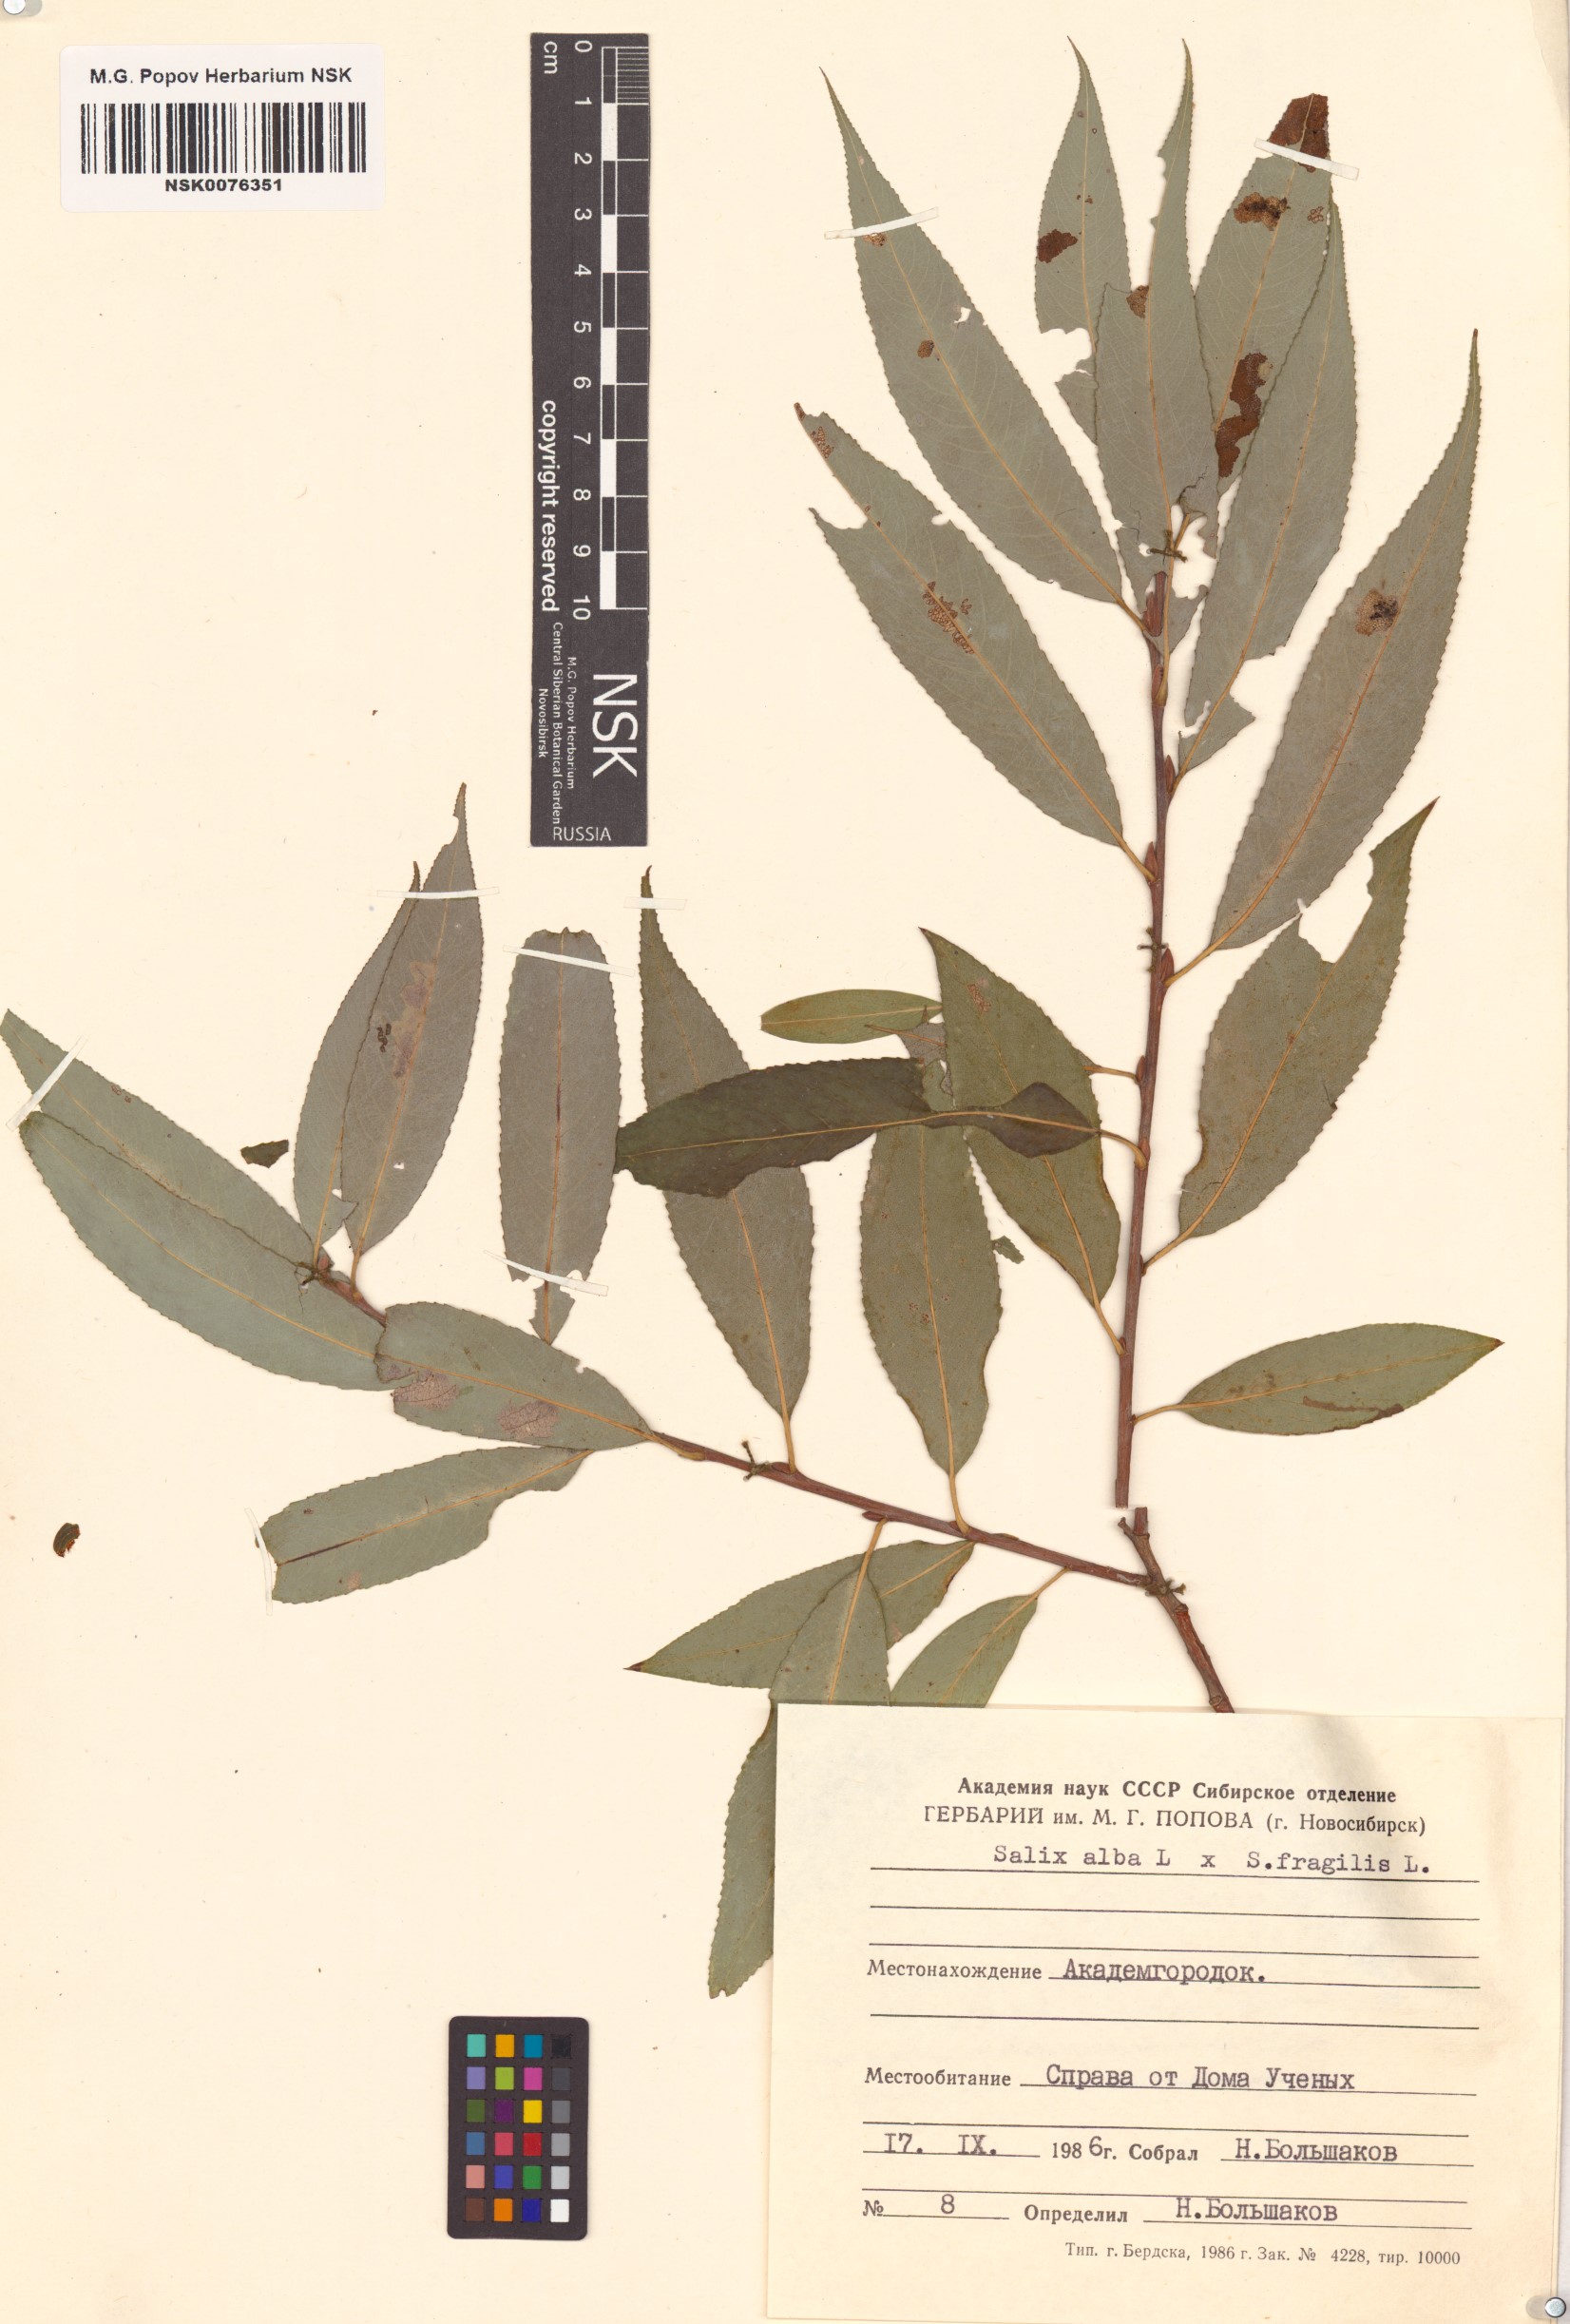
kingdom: Plantae
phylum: Tracheophyta
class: Magnoliopsida
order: Malpighiales
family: Salicaceae
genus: Salix
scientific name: Salix
